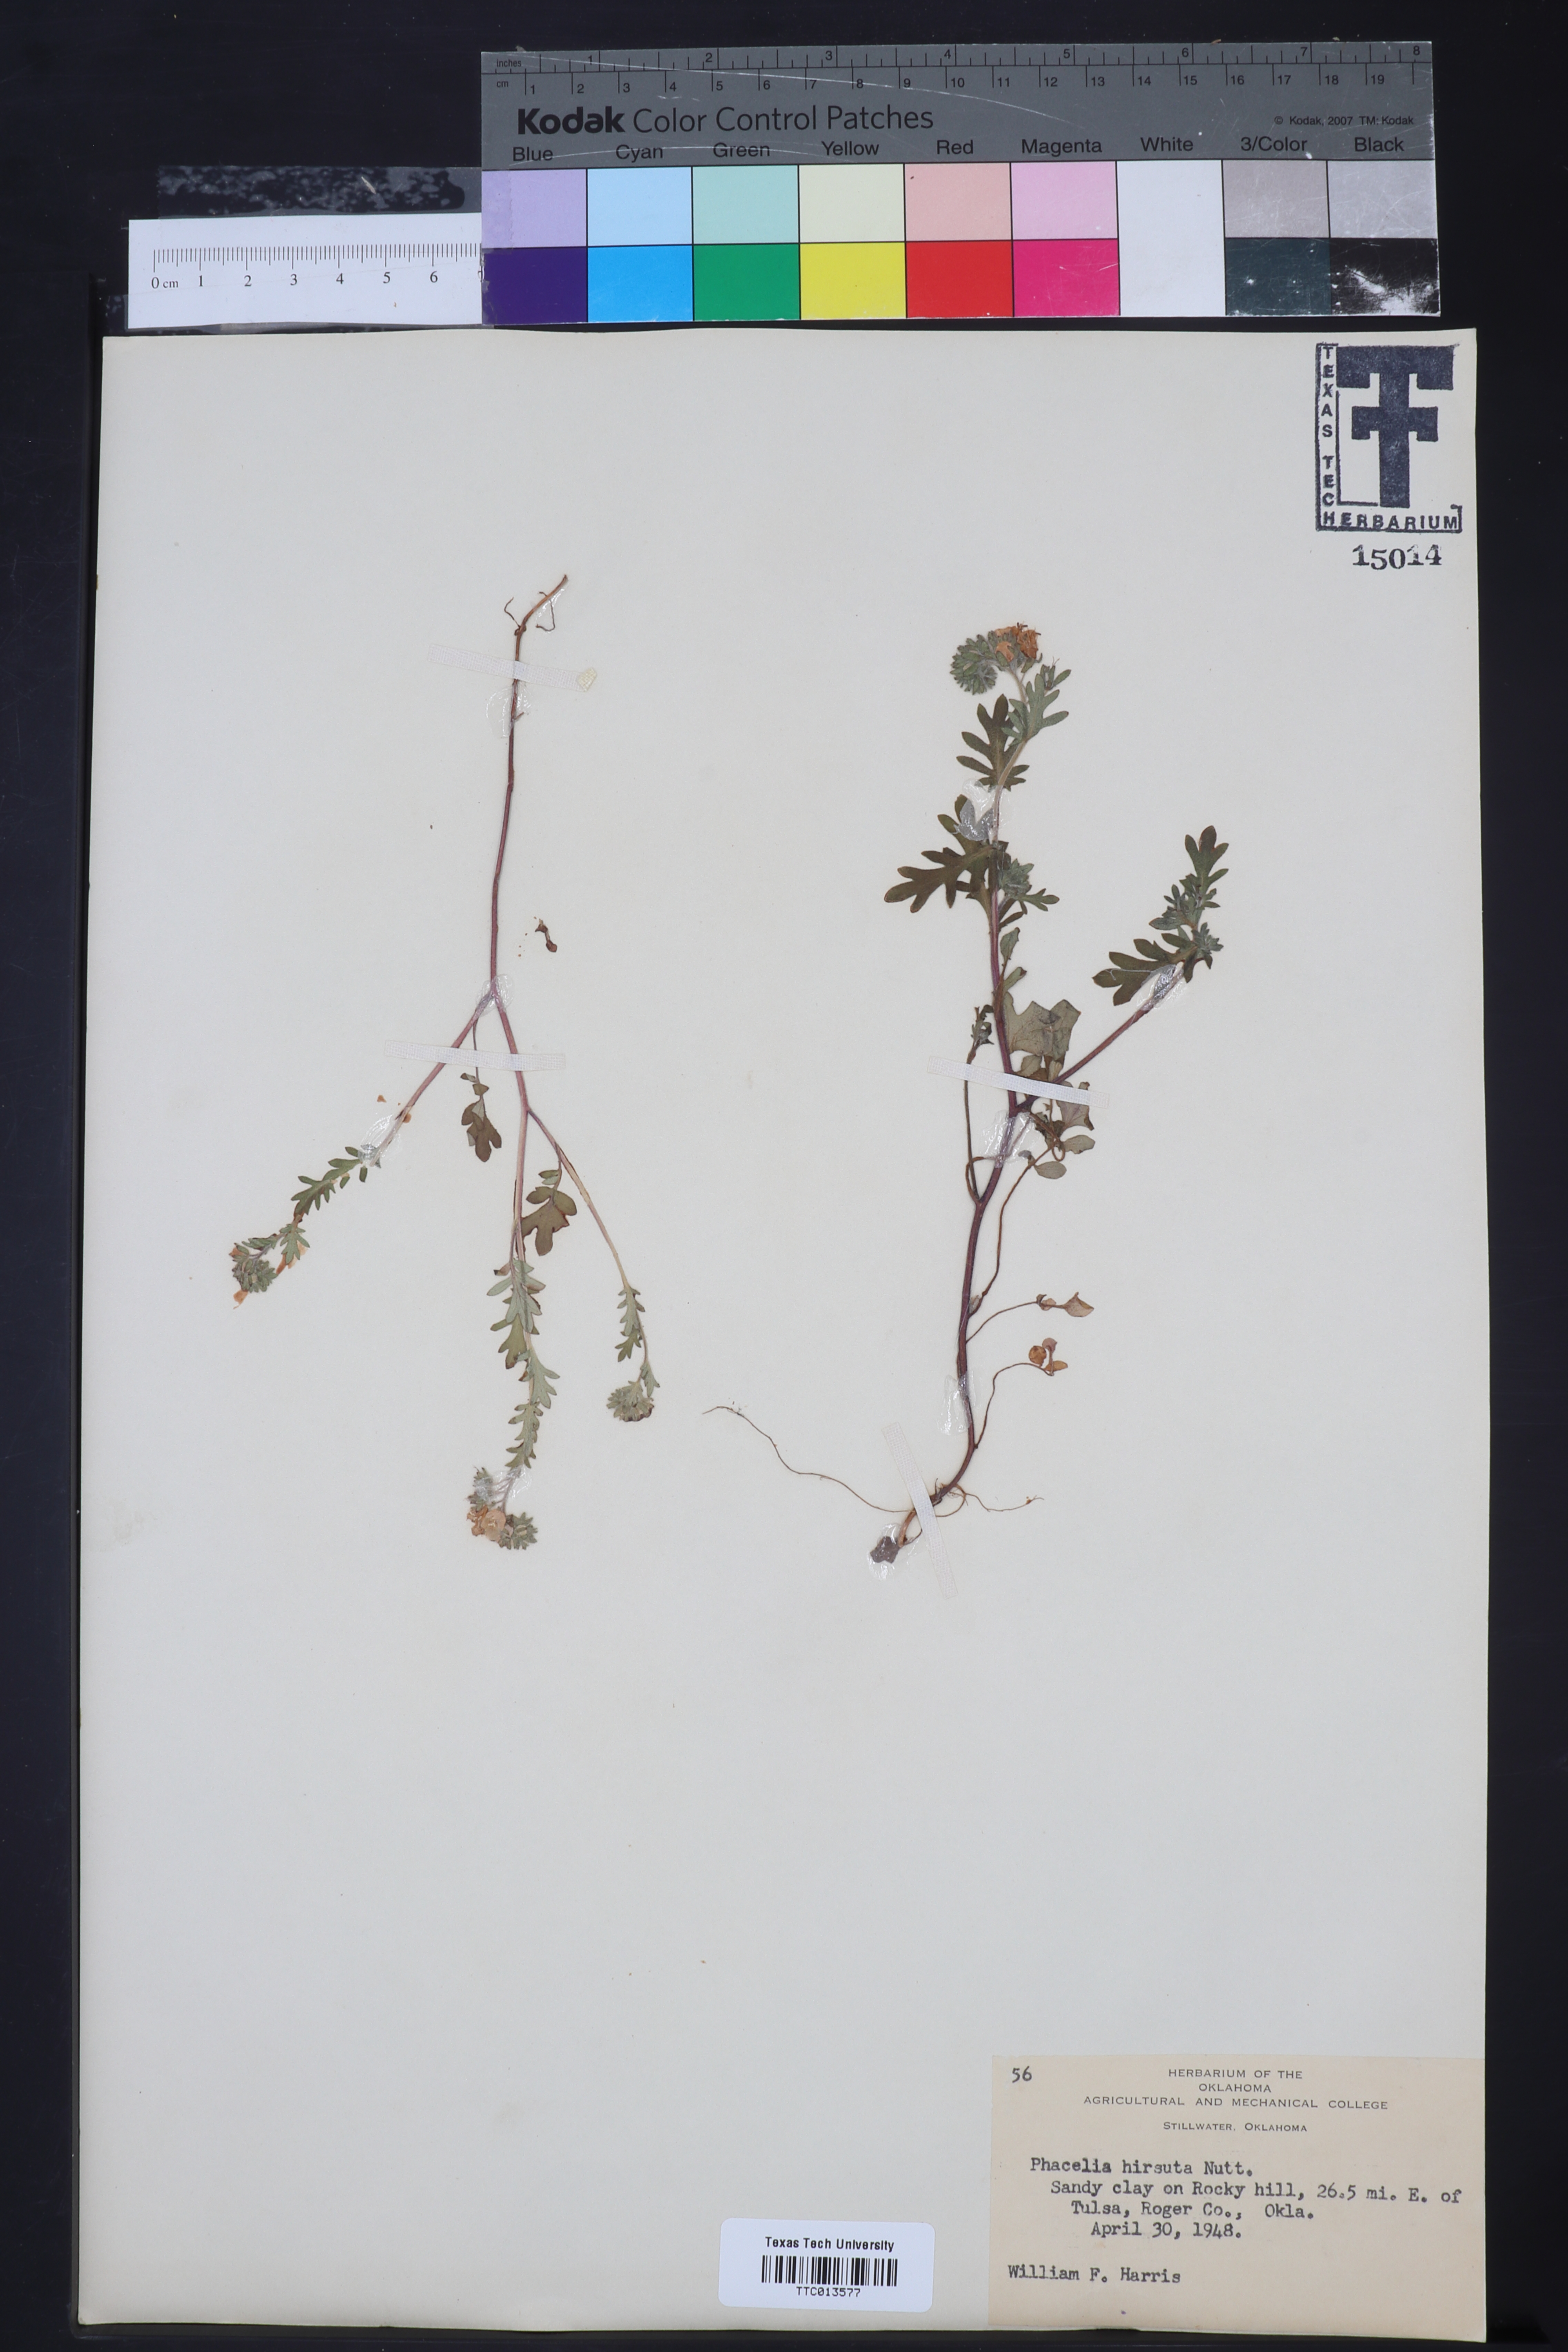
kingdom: Plantae
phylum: Tracheophyta
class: Magnoliopsida
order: Boraginales
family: Hydrophyllaceae
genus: Phacelia
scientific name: Phacelia hirsuta
